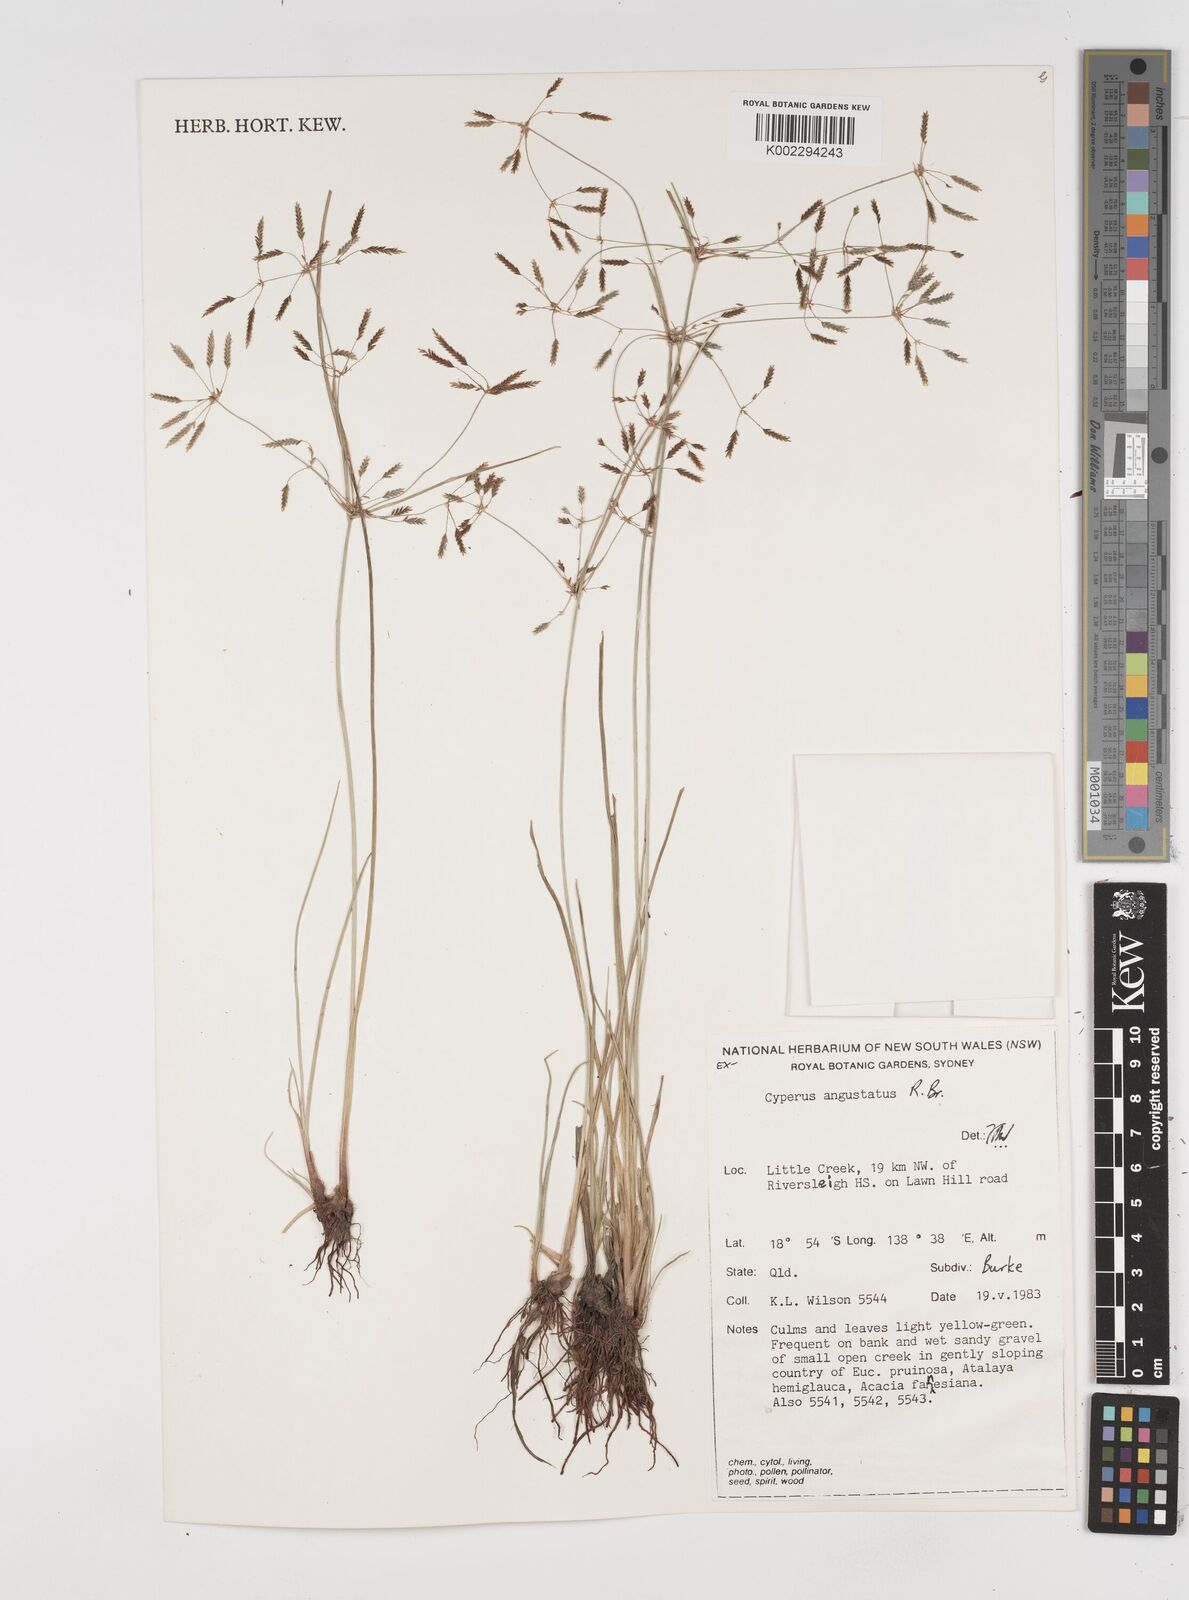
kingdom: Plantae
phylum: Tracheophyta
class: Liliopsida
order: Poales
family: Cyperaceae
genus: Cyperus
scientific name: Cyperus angustatus
